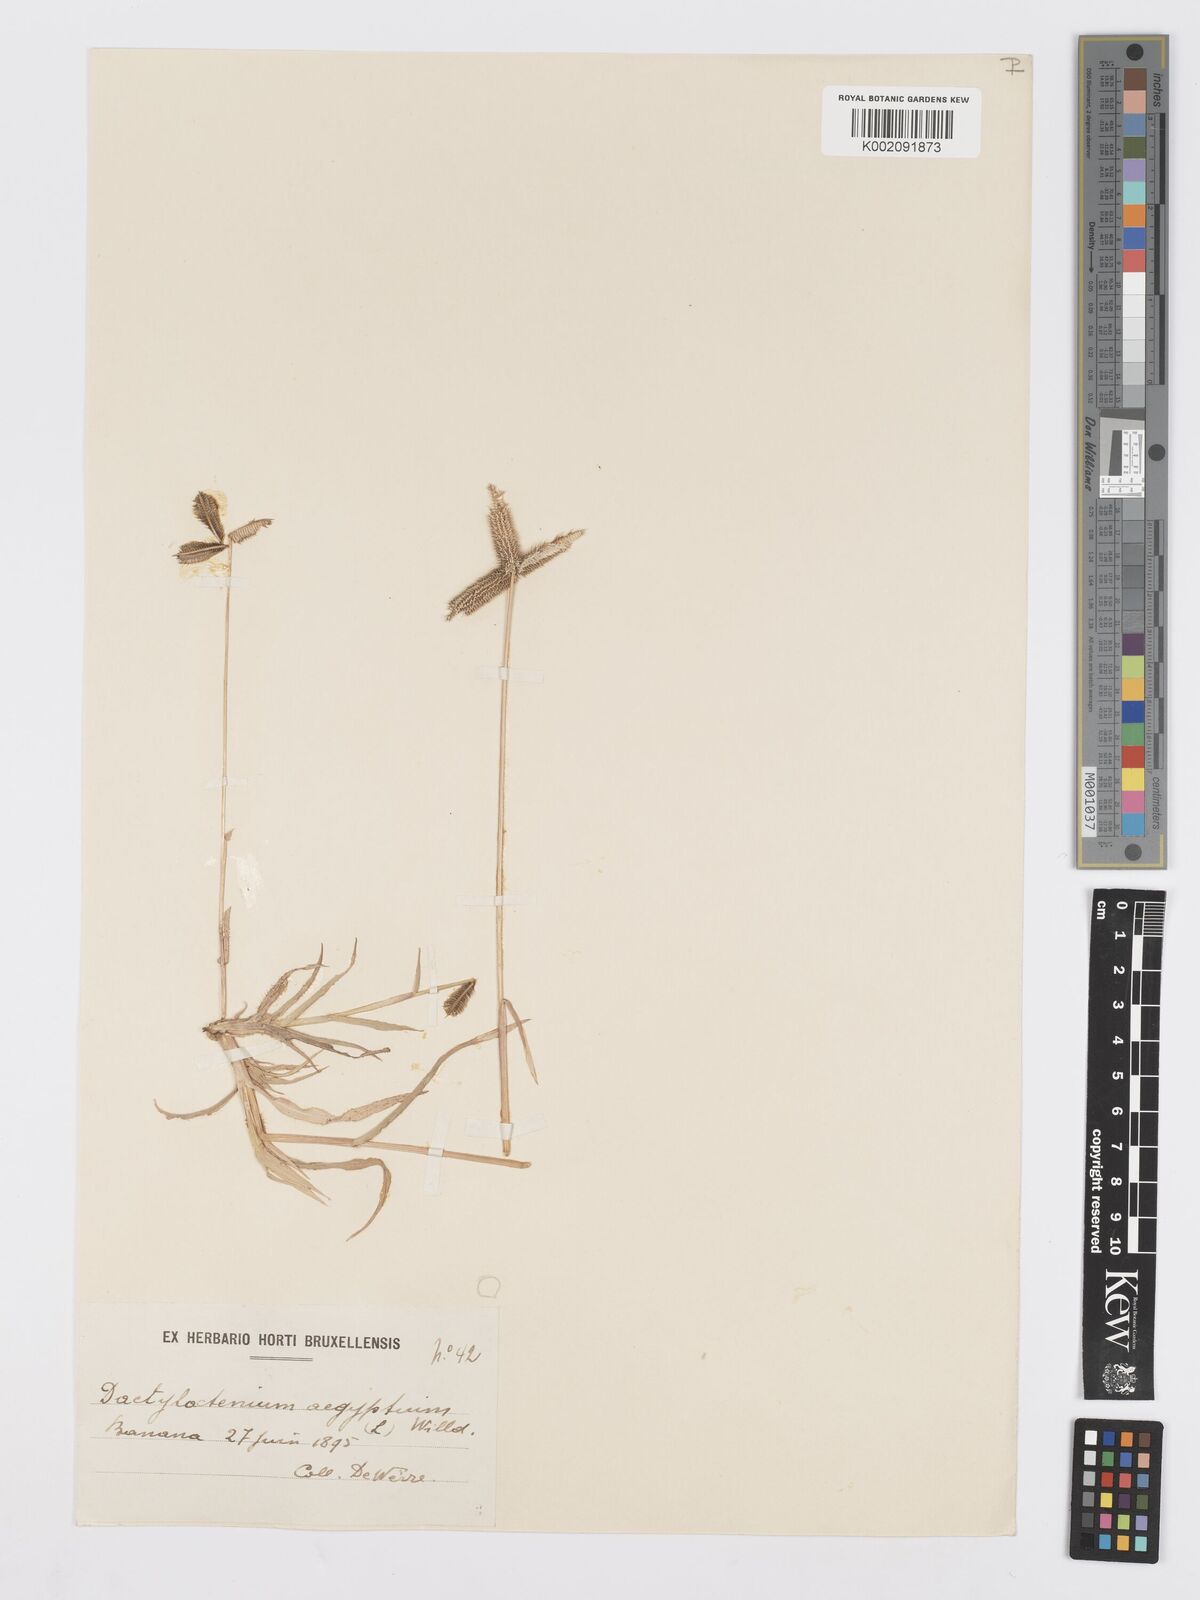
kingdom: Plantae
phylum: Tracheophyta
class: Liliopsida
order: Poales
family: Poaceae
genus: Dactyloctenium
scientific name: Dactyloctenium aegyptium
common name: Egyptian grass
